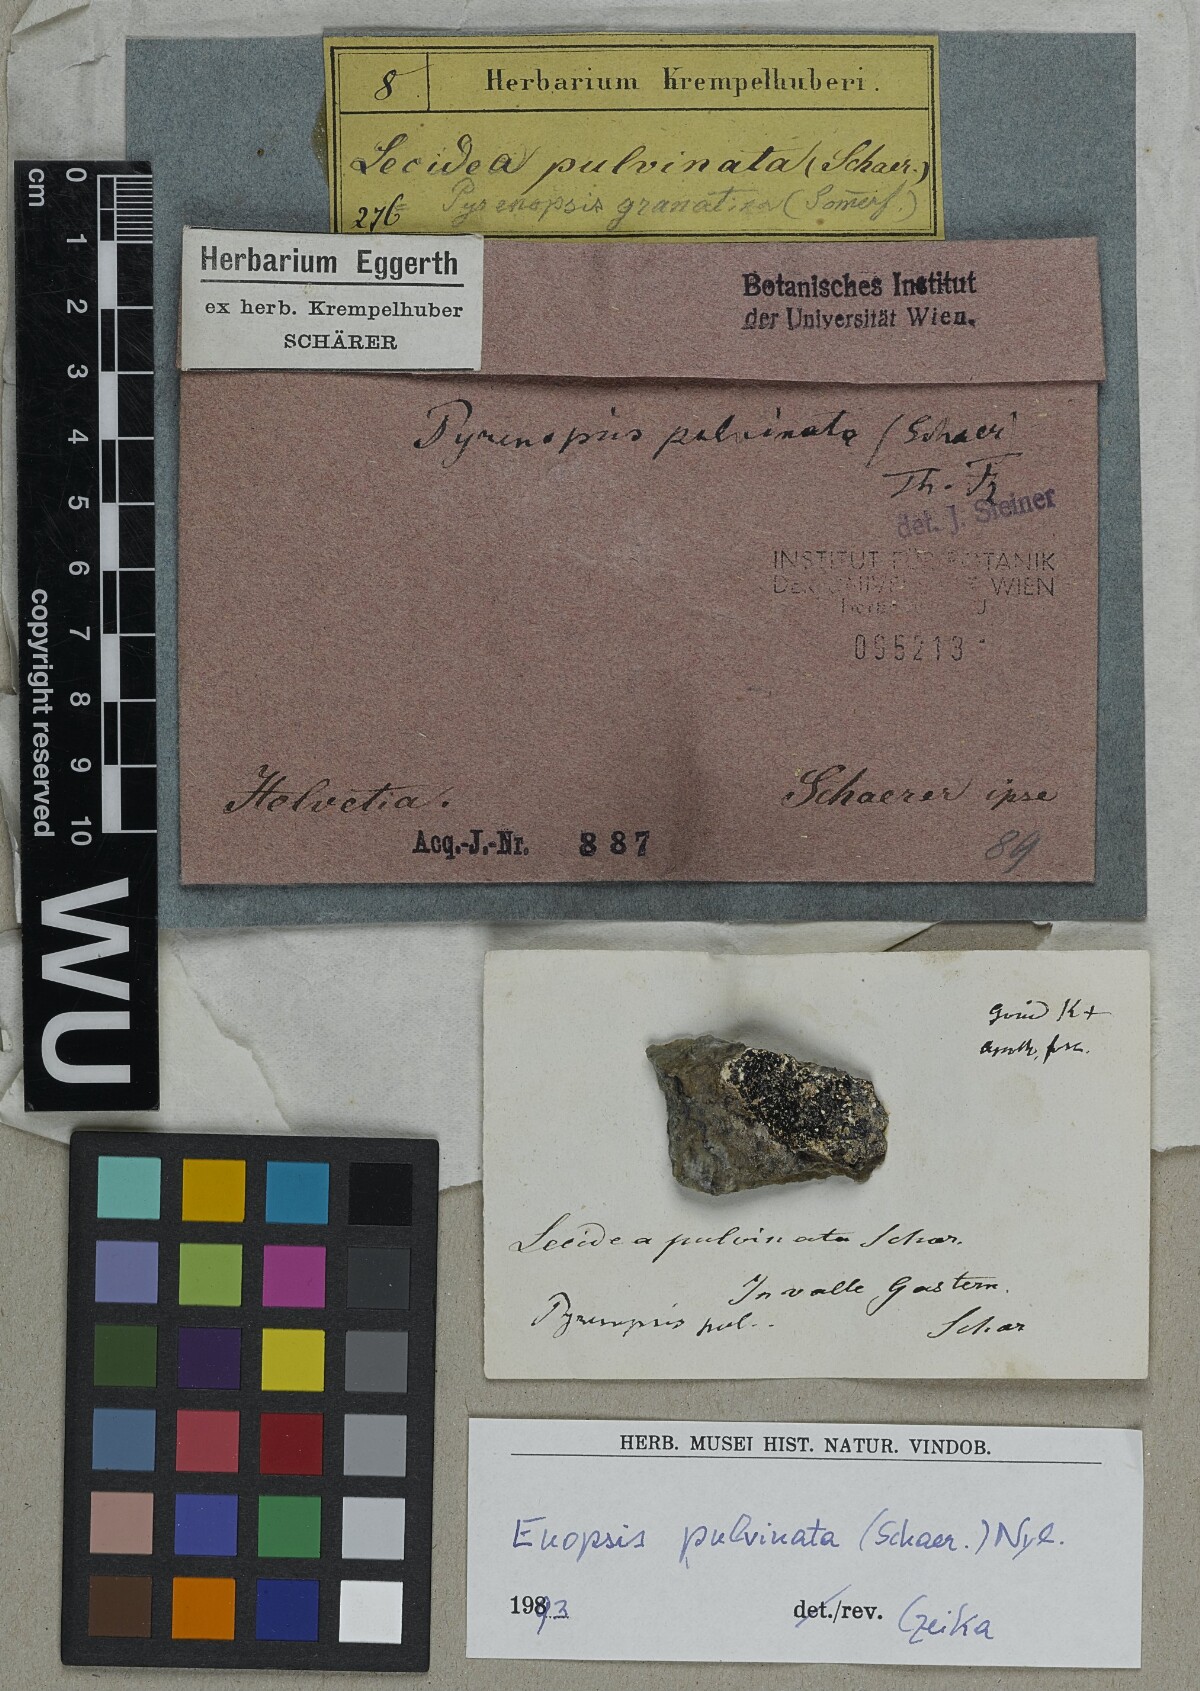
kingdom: Fungi
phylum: Ascomycota
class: Lichinomycetes
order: Lichinales
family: Lichinaceae
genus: Euopsis
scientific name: Euopsis pulvinata
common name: Greater rockbud lichen
